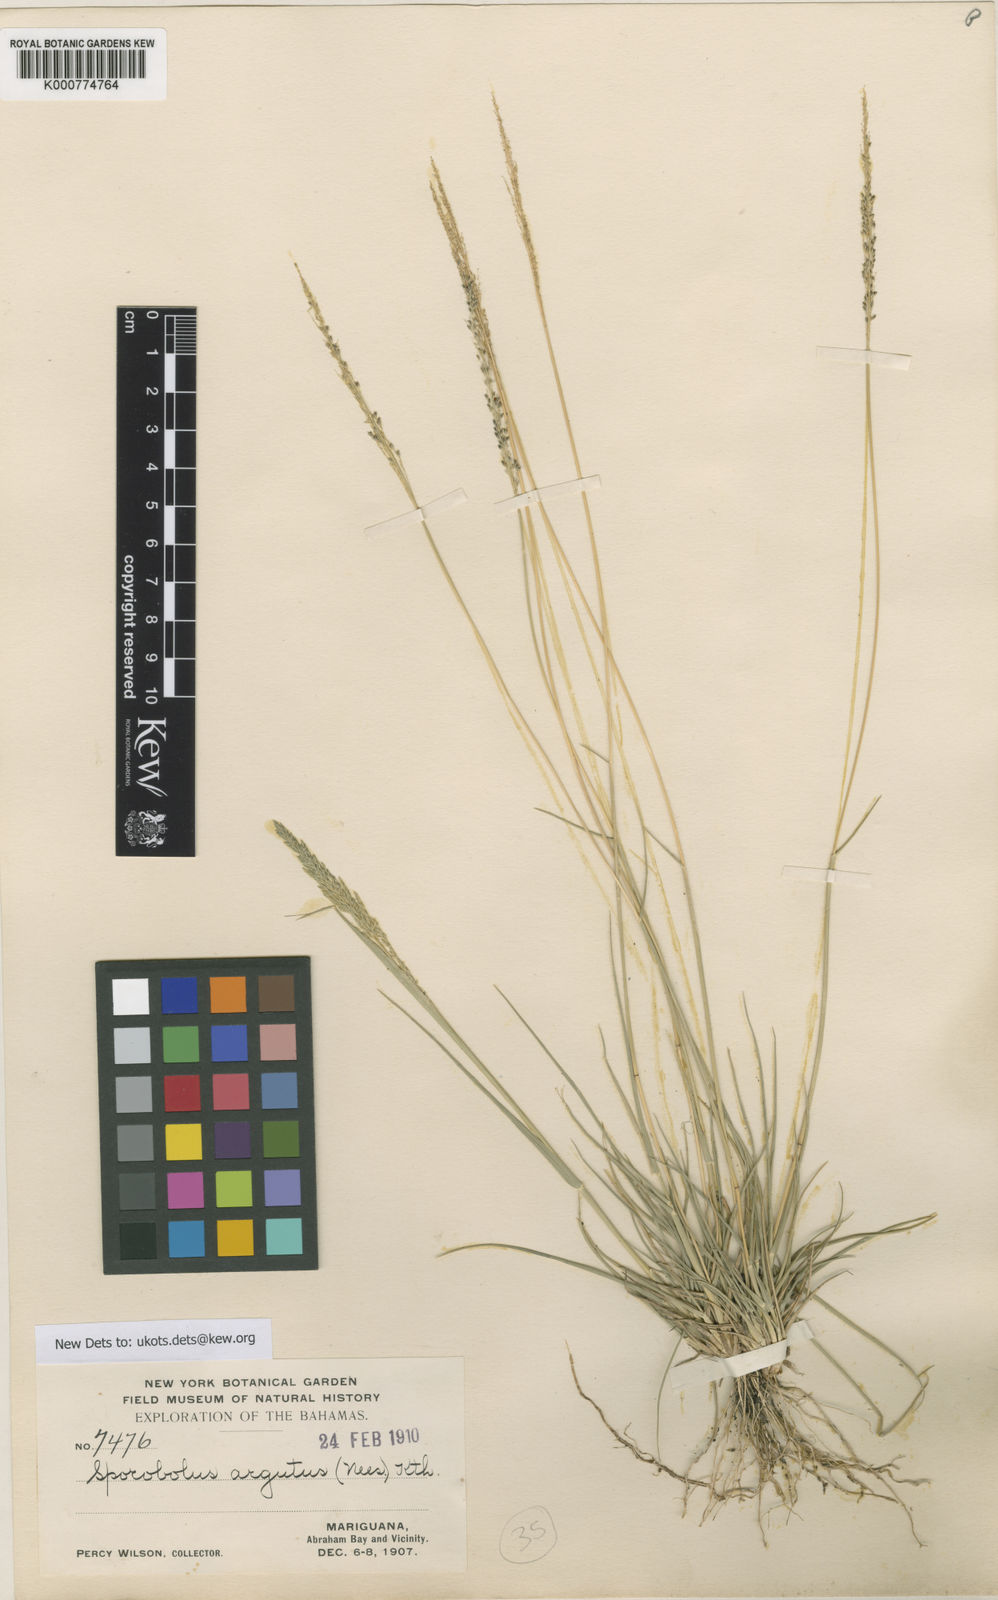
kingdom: Plantae
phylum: Tracheophyta
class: Liliopsida
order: Poales
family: Poaceae
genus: Sporobolus
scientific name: Sporobolus domingensis
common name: Coral dropseed
